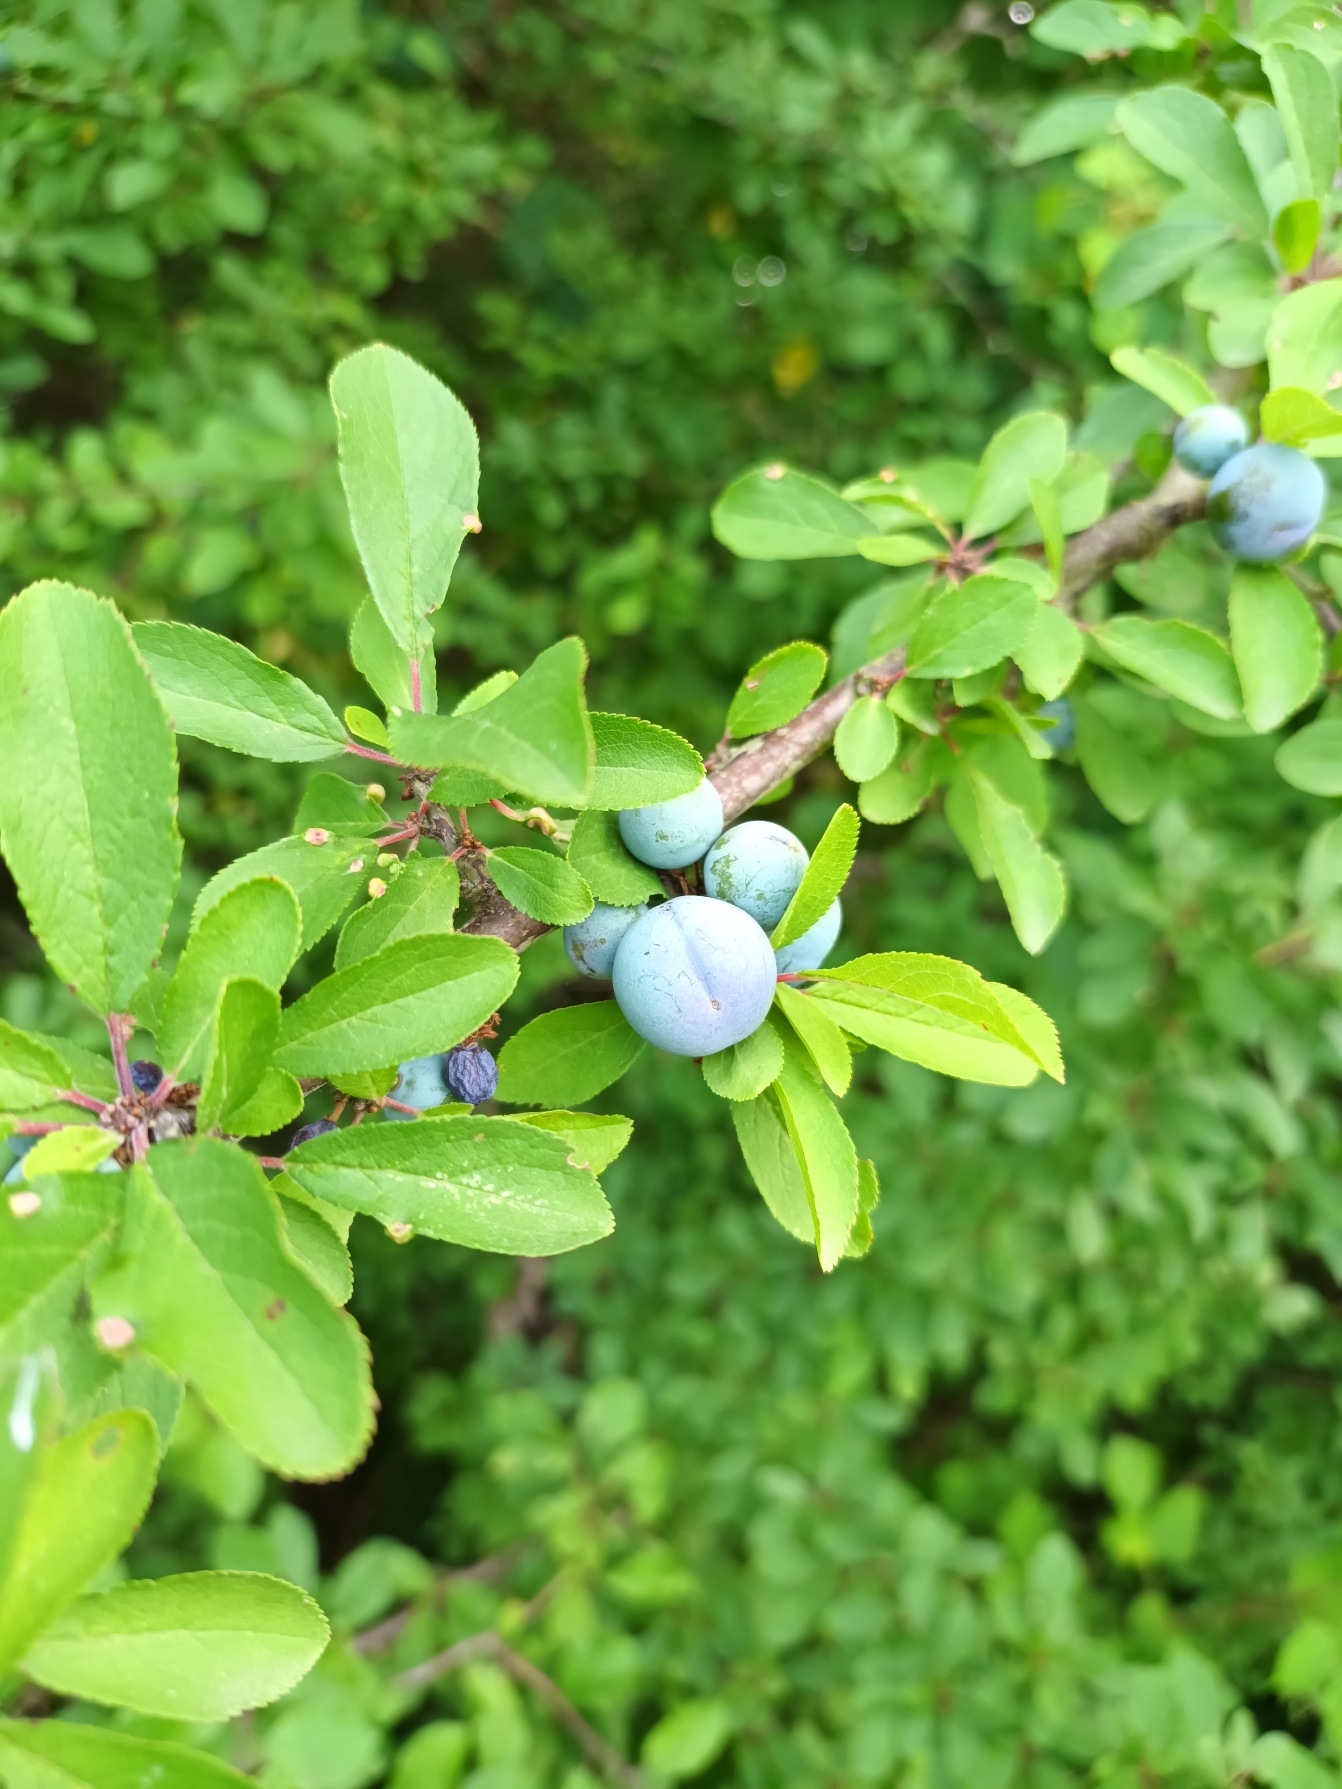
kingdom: Plantae
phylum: Tracheophyta
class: Magnoliopsida
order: Rosales
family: Rosaceae
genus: Prunus
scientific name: Prunus spinosa
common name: Slåen
